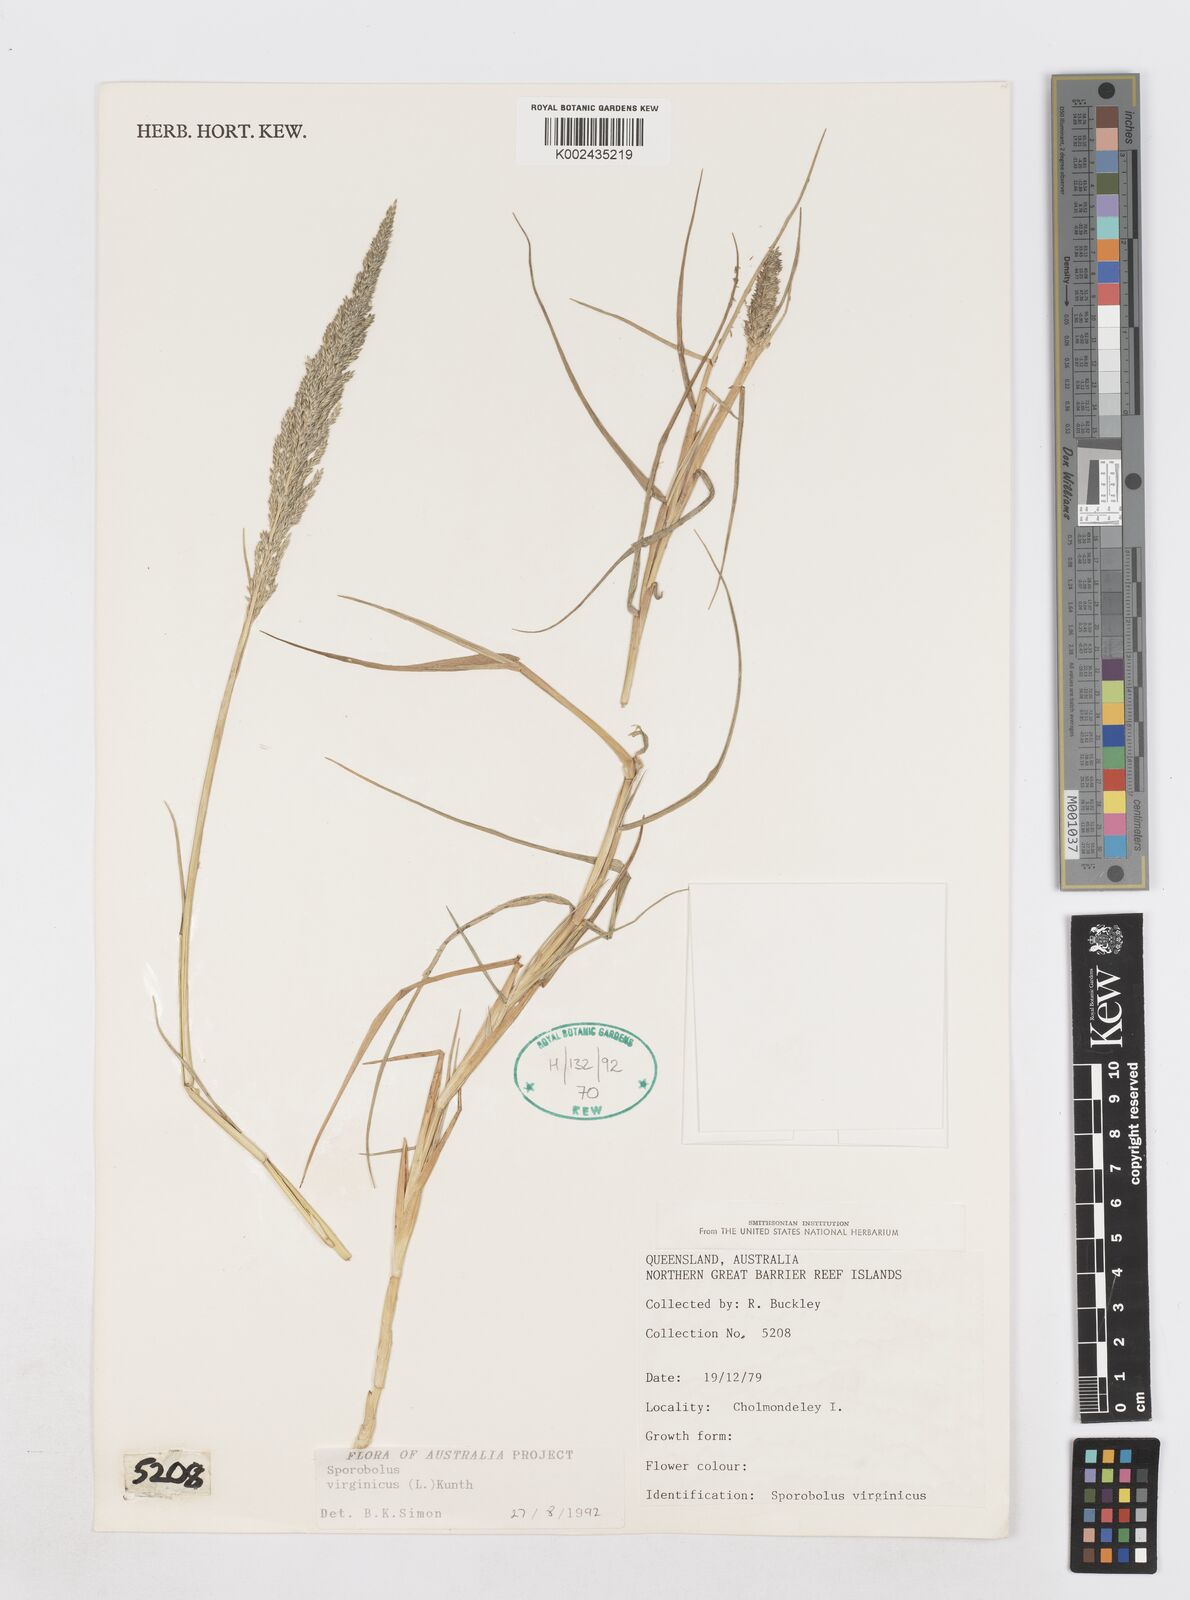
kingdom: Plantae
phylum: Tracheophyta
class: Liliopsida
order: Poales
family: Poaceae
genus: Sporobolus
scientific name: Sporobolus virginicus
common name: Beach dropseed
